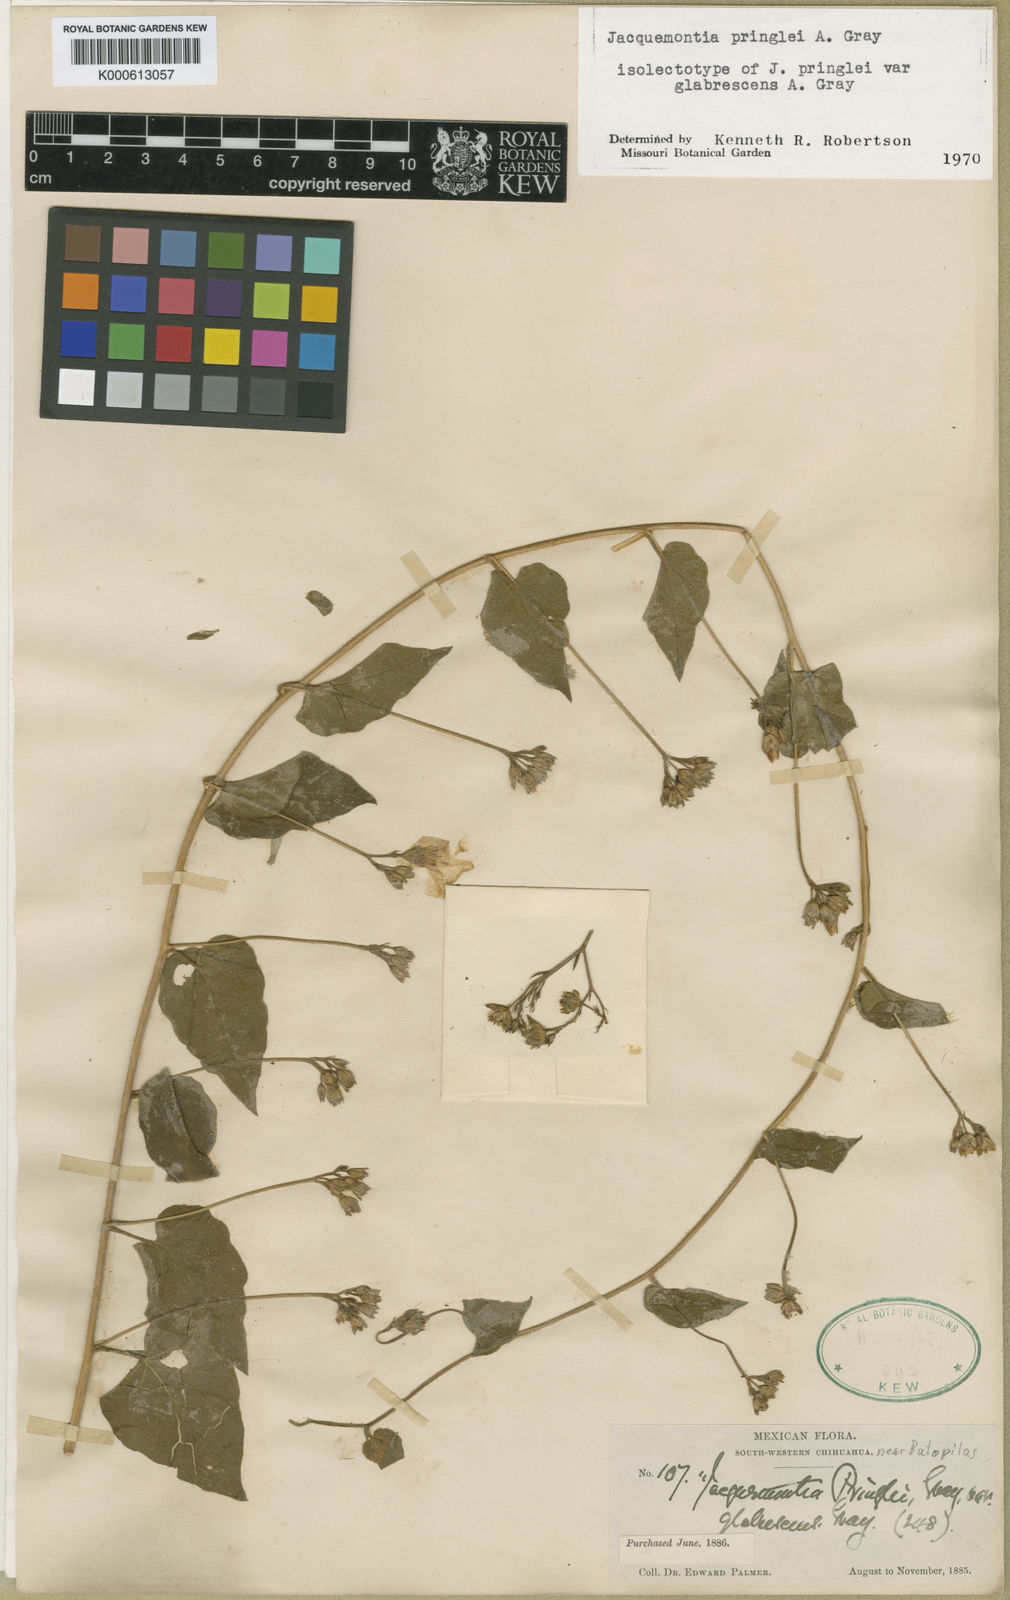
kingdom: Plantae
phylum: Tracheophyta
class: Magnoliopsida
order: Solanales
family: Convolvulaceae
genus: Jacquemontia
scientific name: Jacquemontia pringlei
